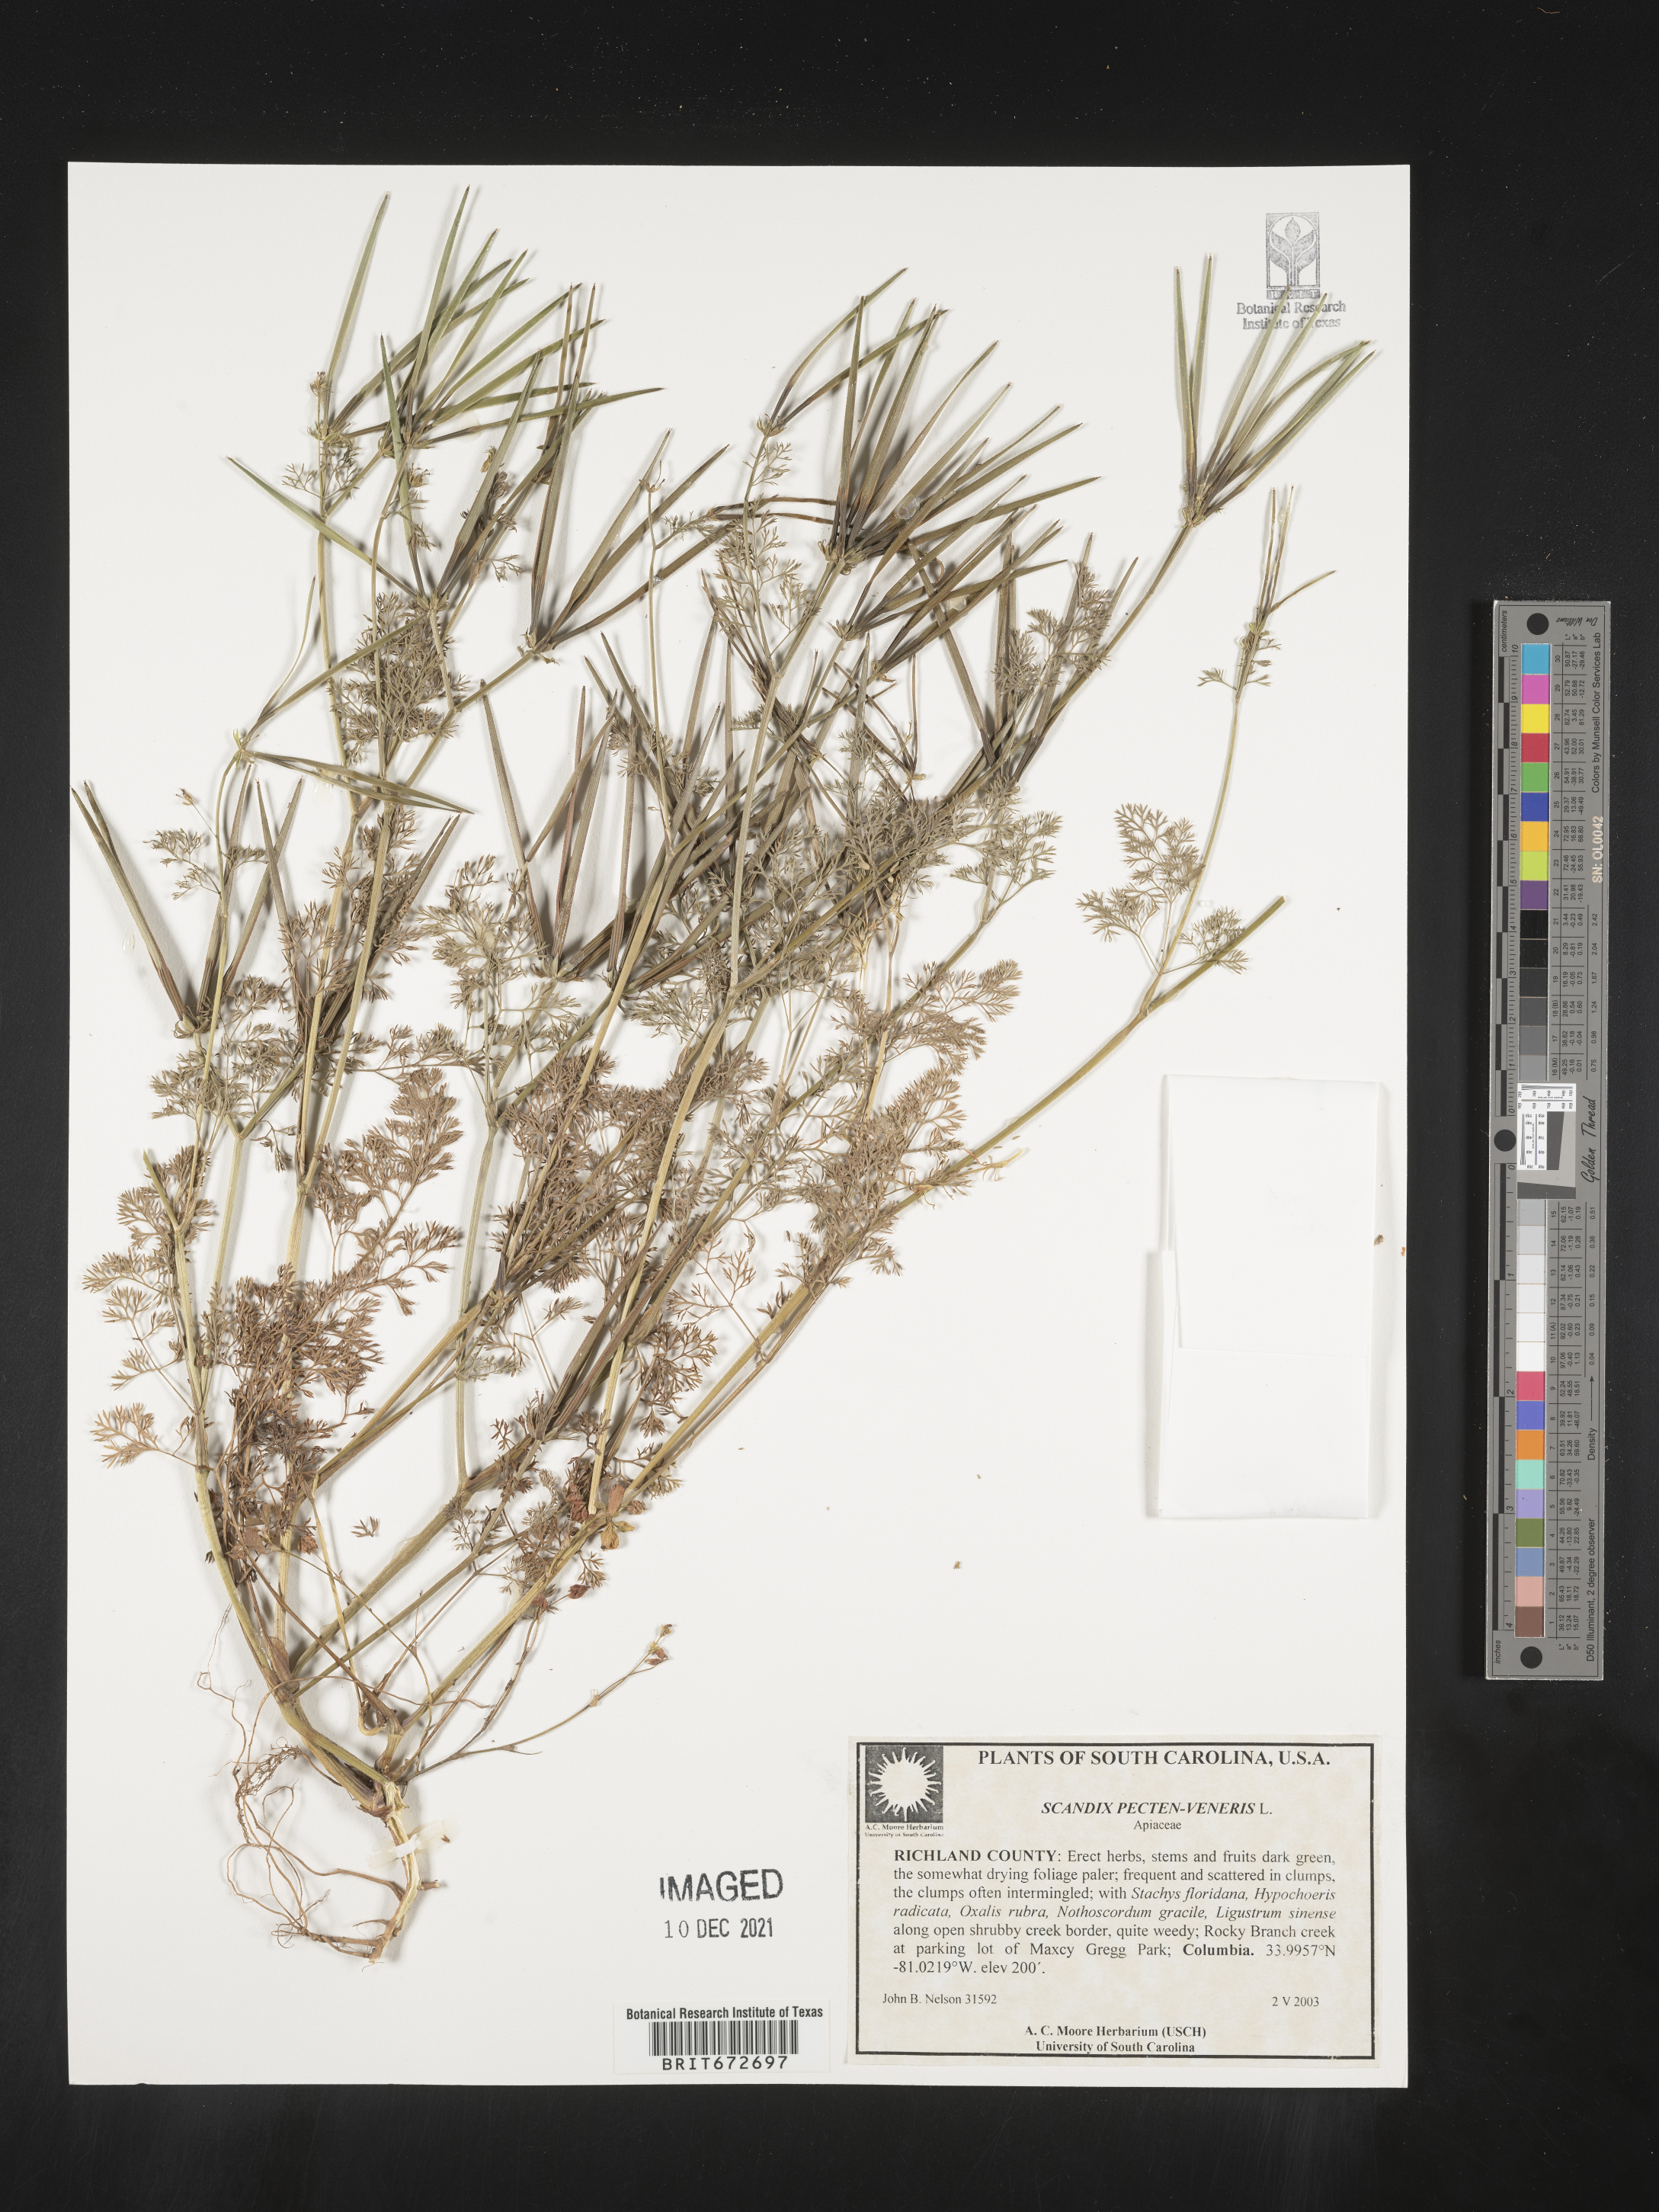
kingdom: Plantae
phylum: Tracheophyta
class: Magnoliopsida
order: Apiales
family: Apiaceae
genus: Scandix
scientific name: Scandix
